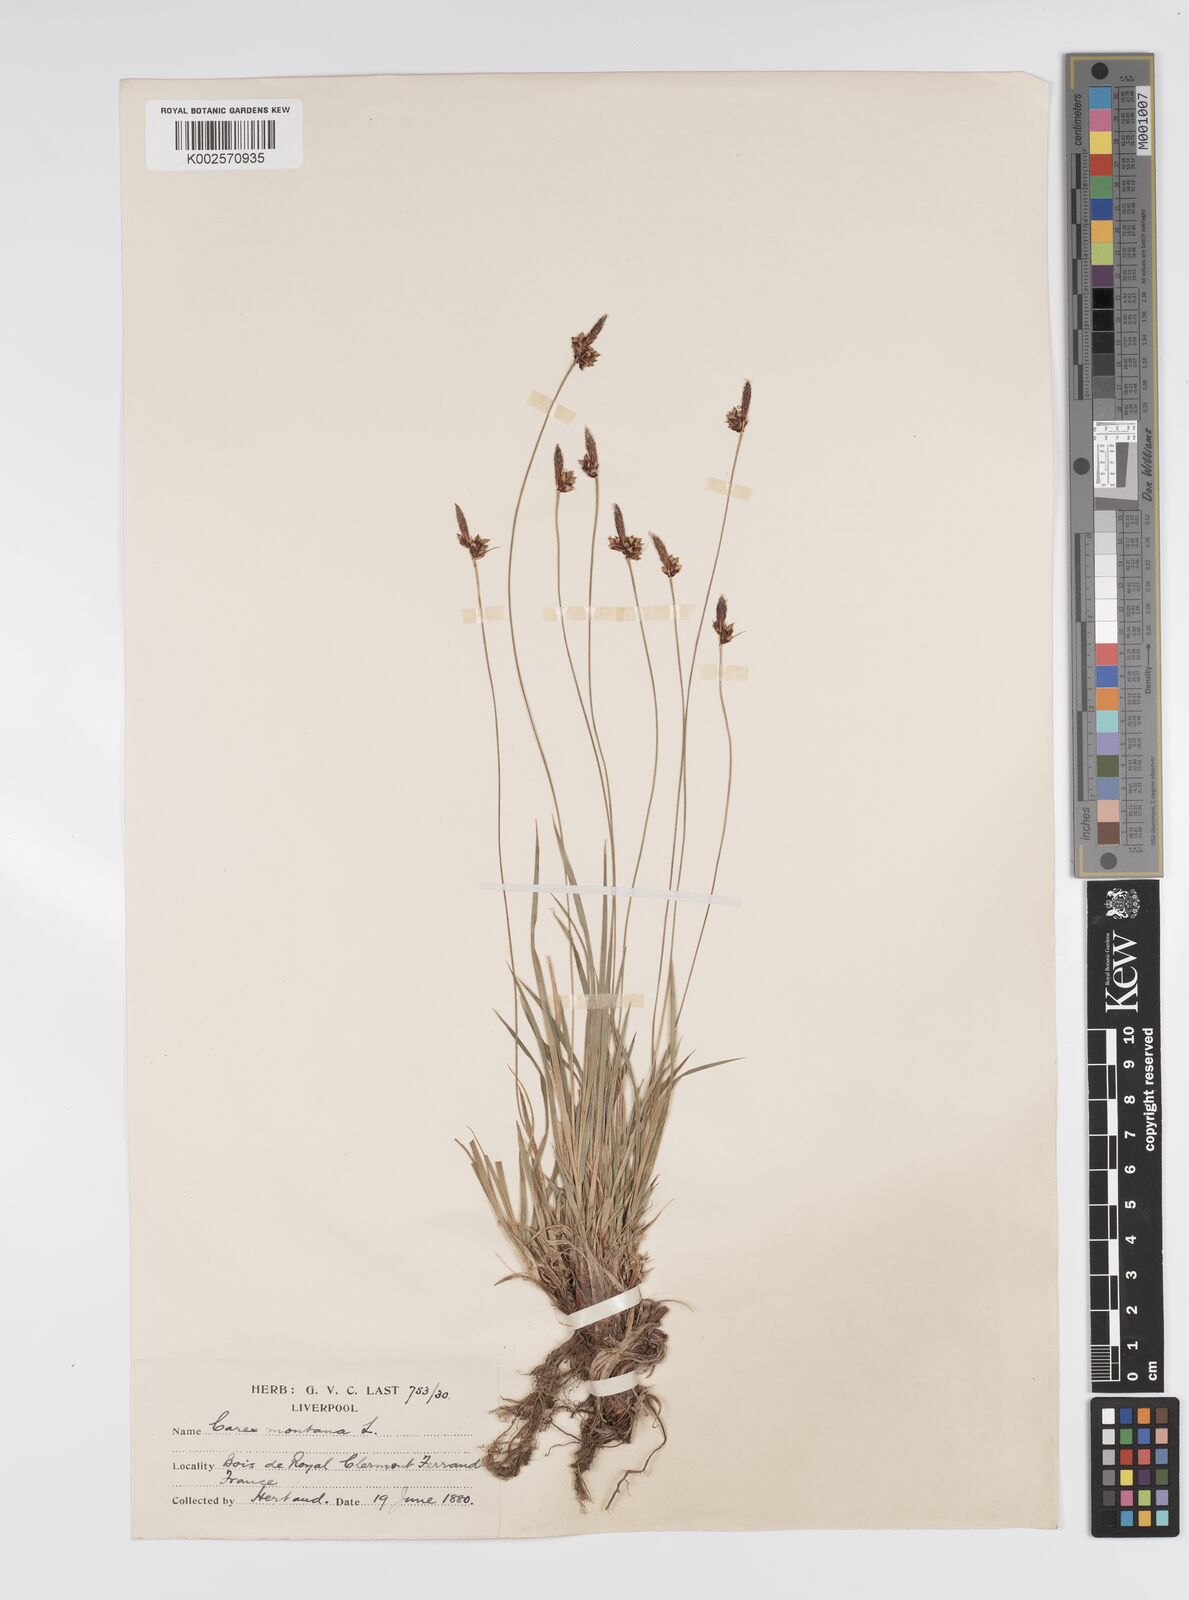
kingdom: Plantae
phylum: Tracheophyta
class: Liliopsida
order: Poales
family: Cyperaceae
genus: Carex
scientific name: Carex montana
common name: Soft-leaved sedge
